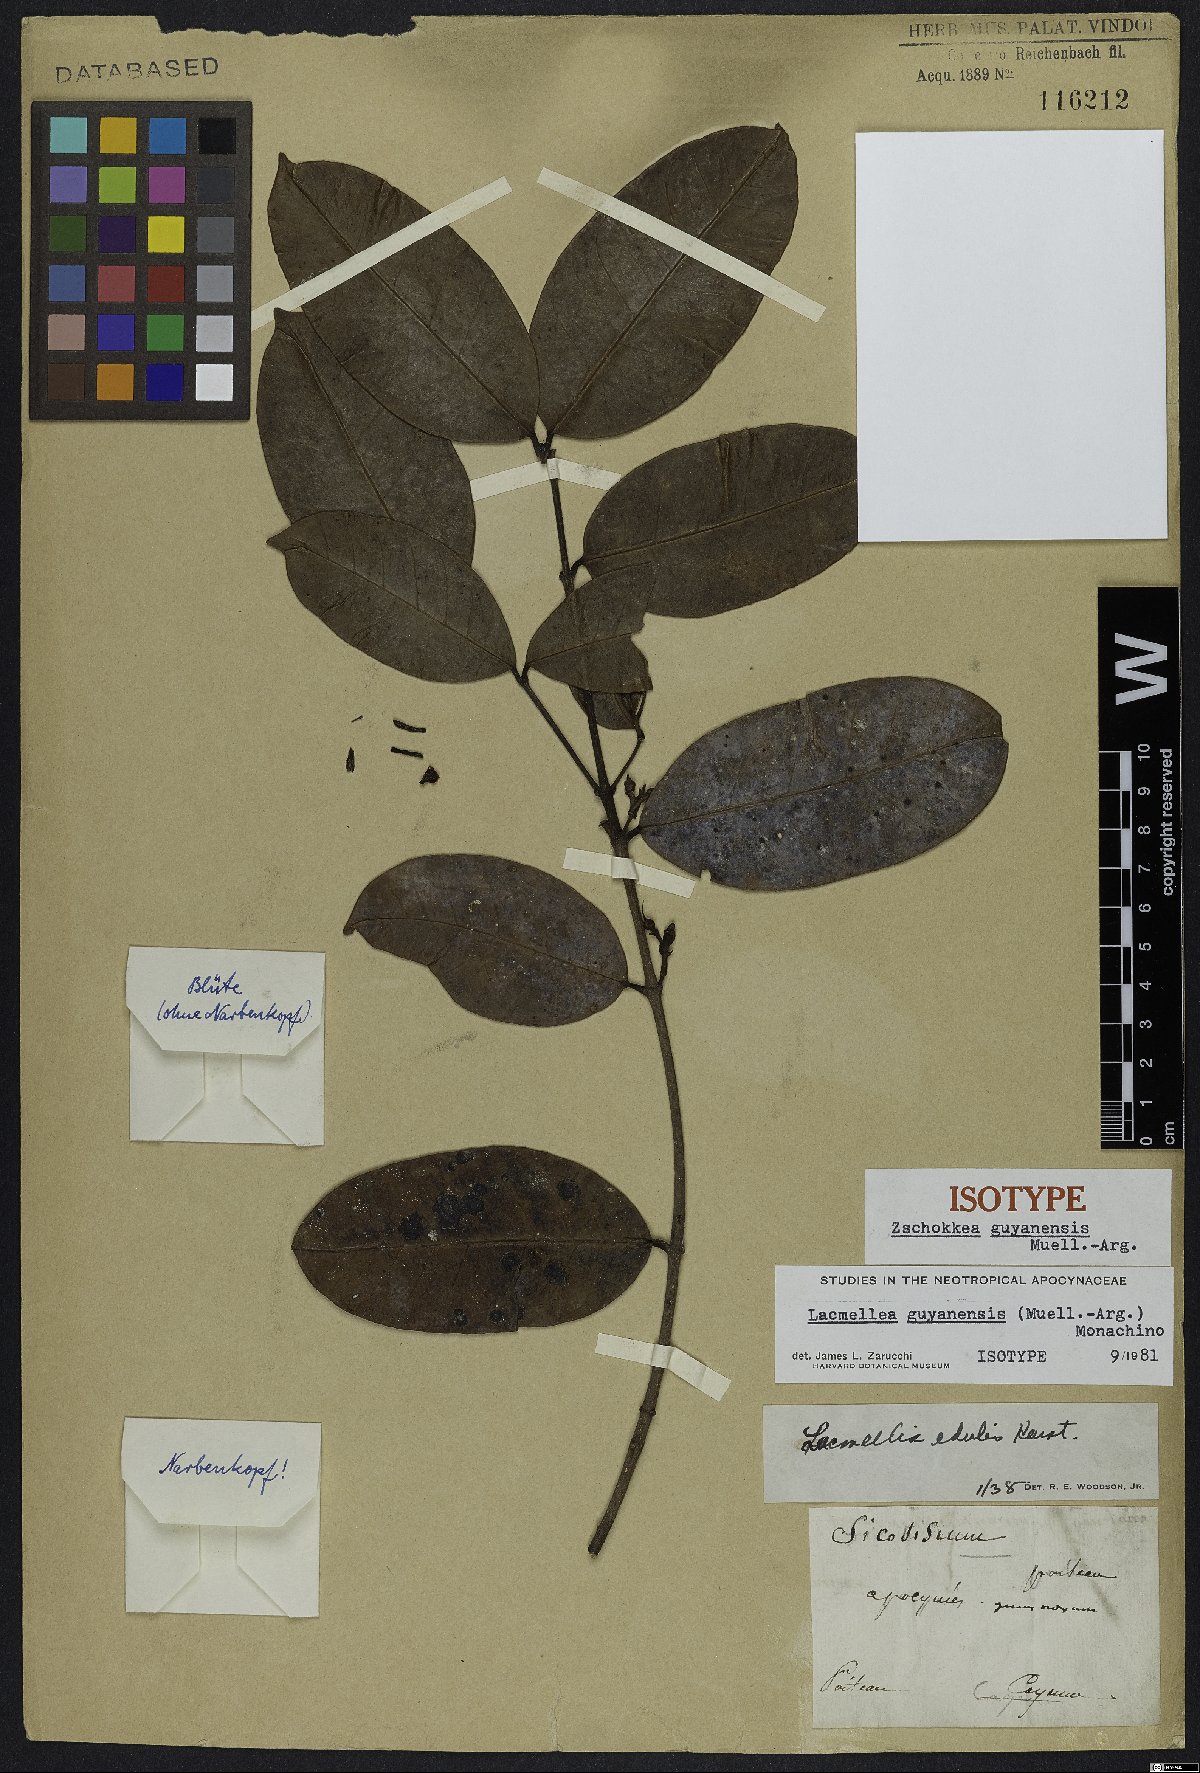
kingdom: Plantae
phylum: Tracheophyta
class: Magnoliopsida
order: Gentianales
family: Apocynaceae
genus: Lacmellea
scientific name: Lacmellea guyanensis
